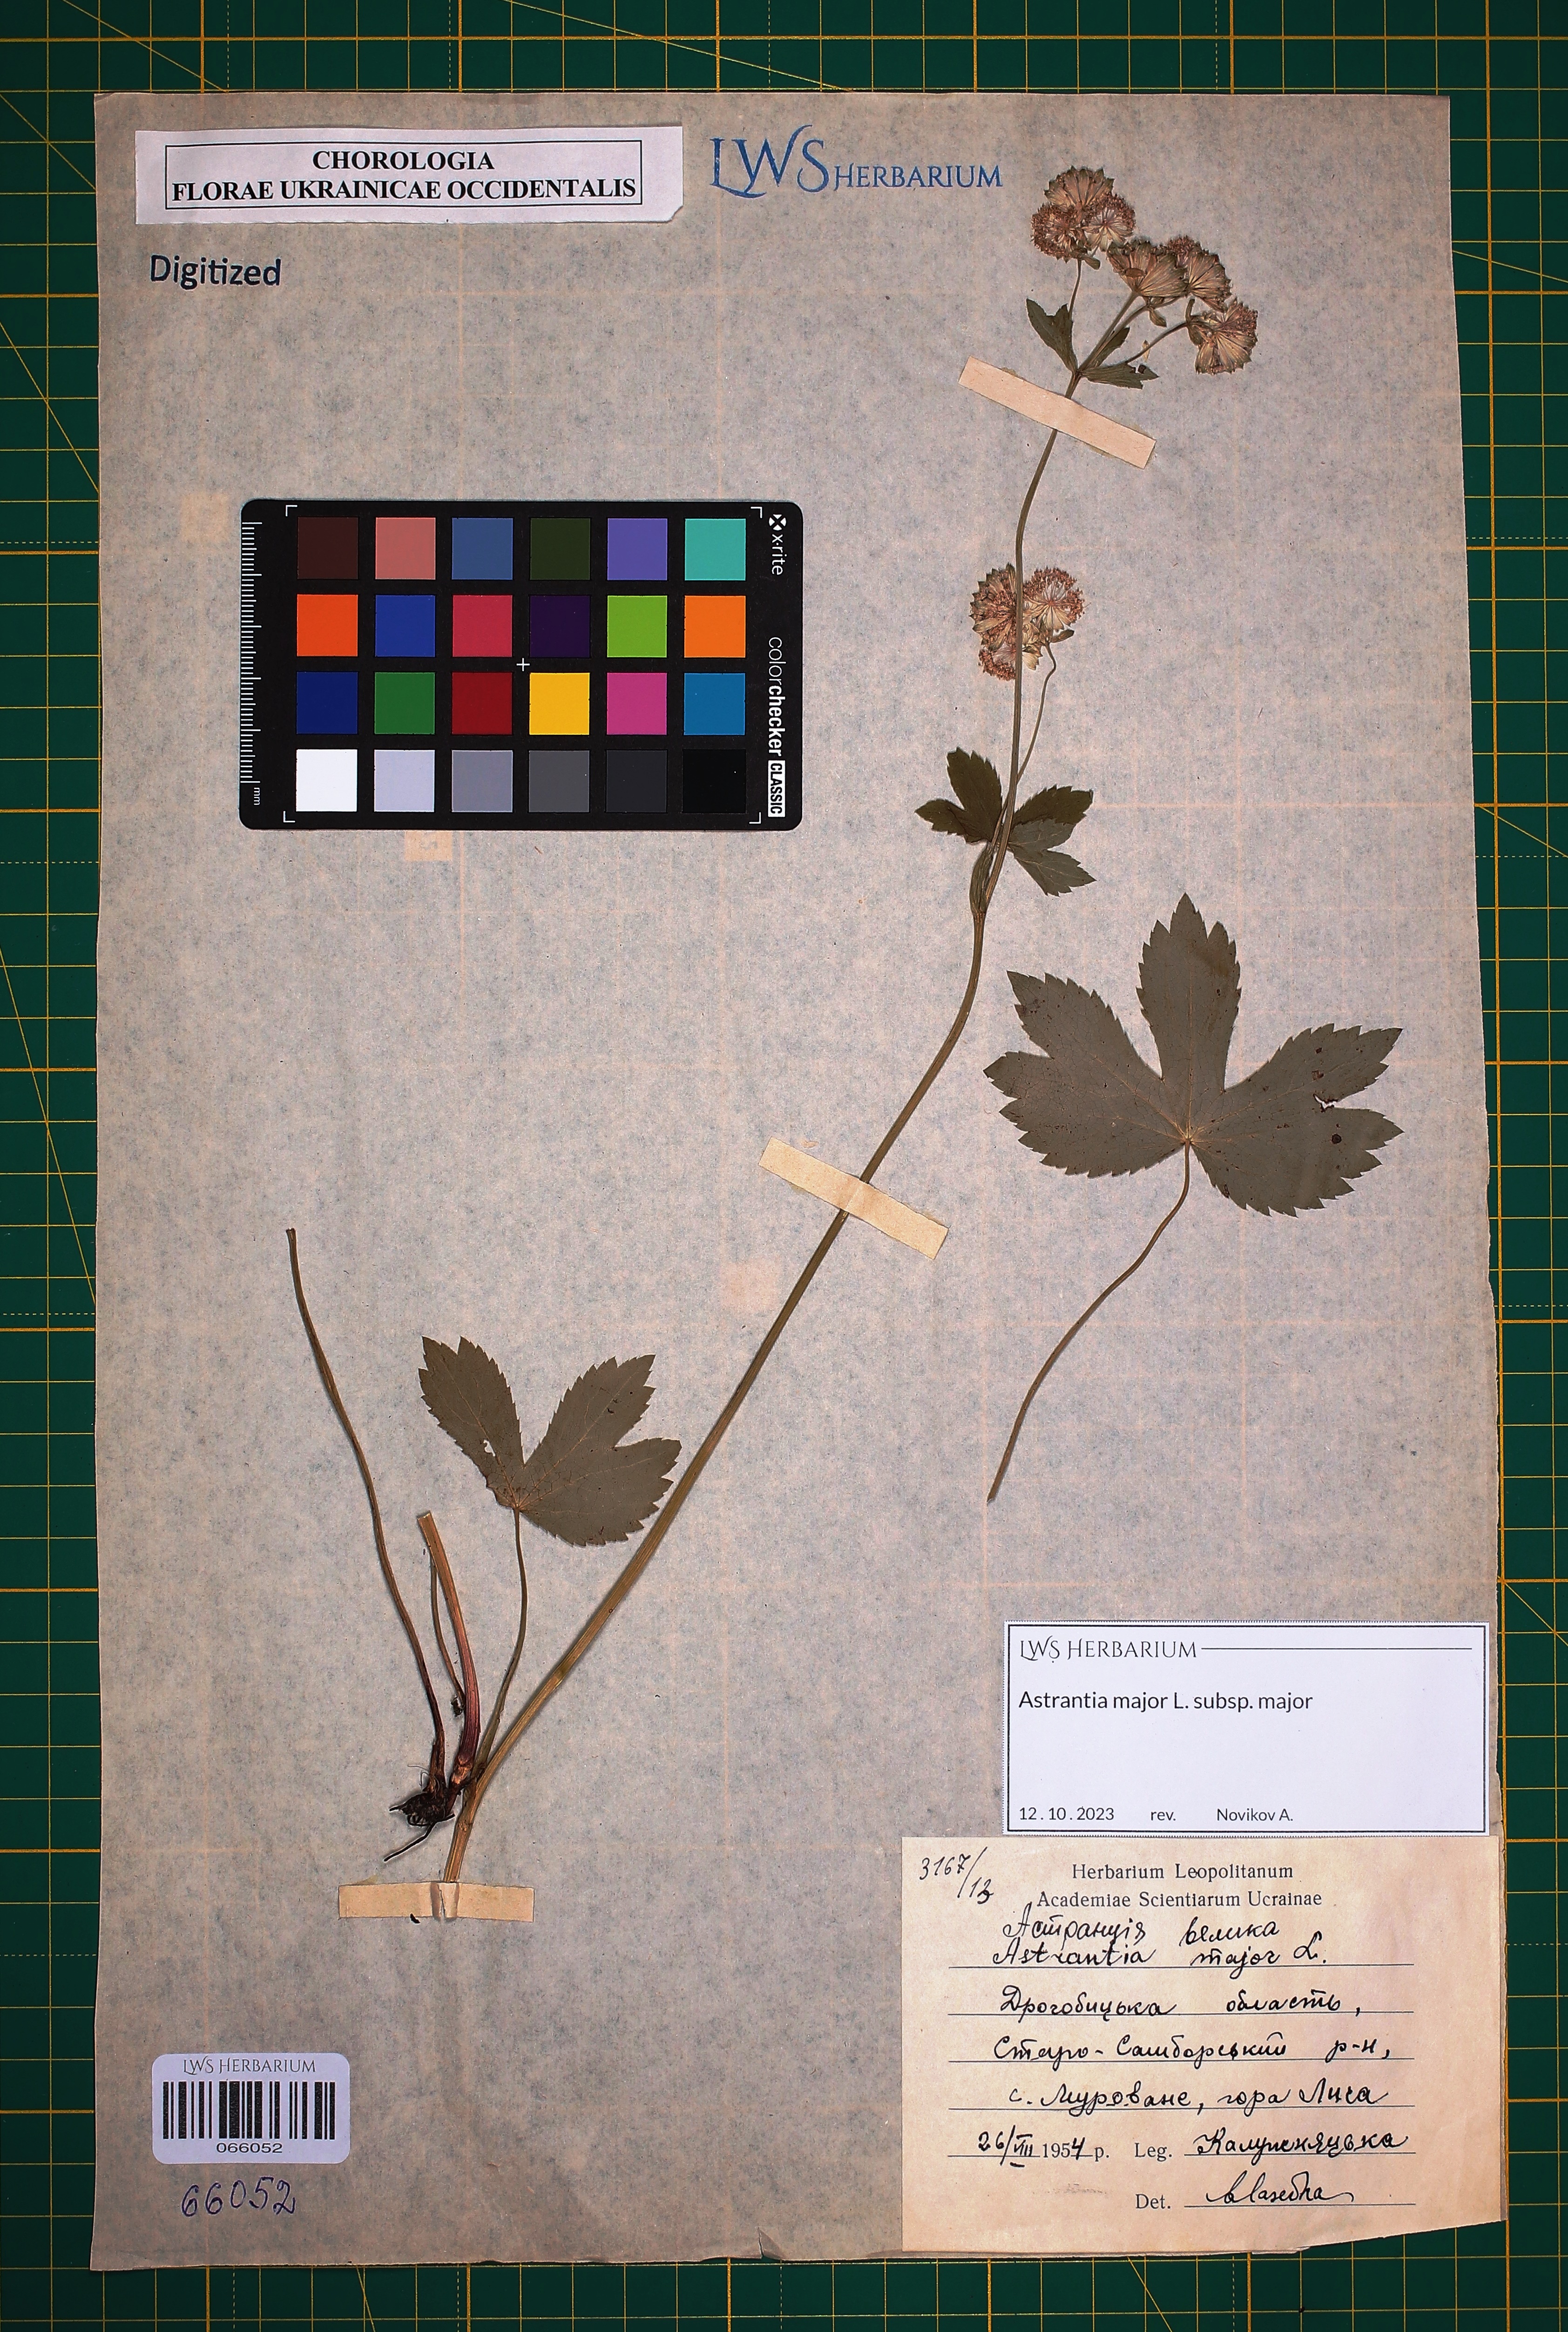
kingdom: Plantae
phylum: Tracheophyta
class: Magnoliopsida
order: Apiales
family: Apiaceae
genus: Astrantia
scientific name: Astrantia major
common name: Greater masterwort
